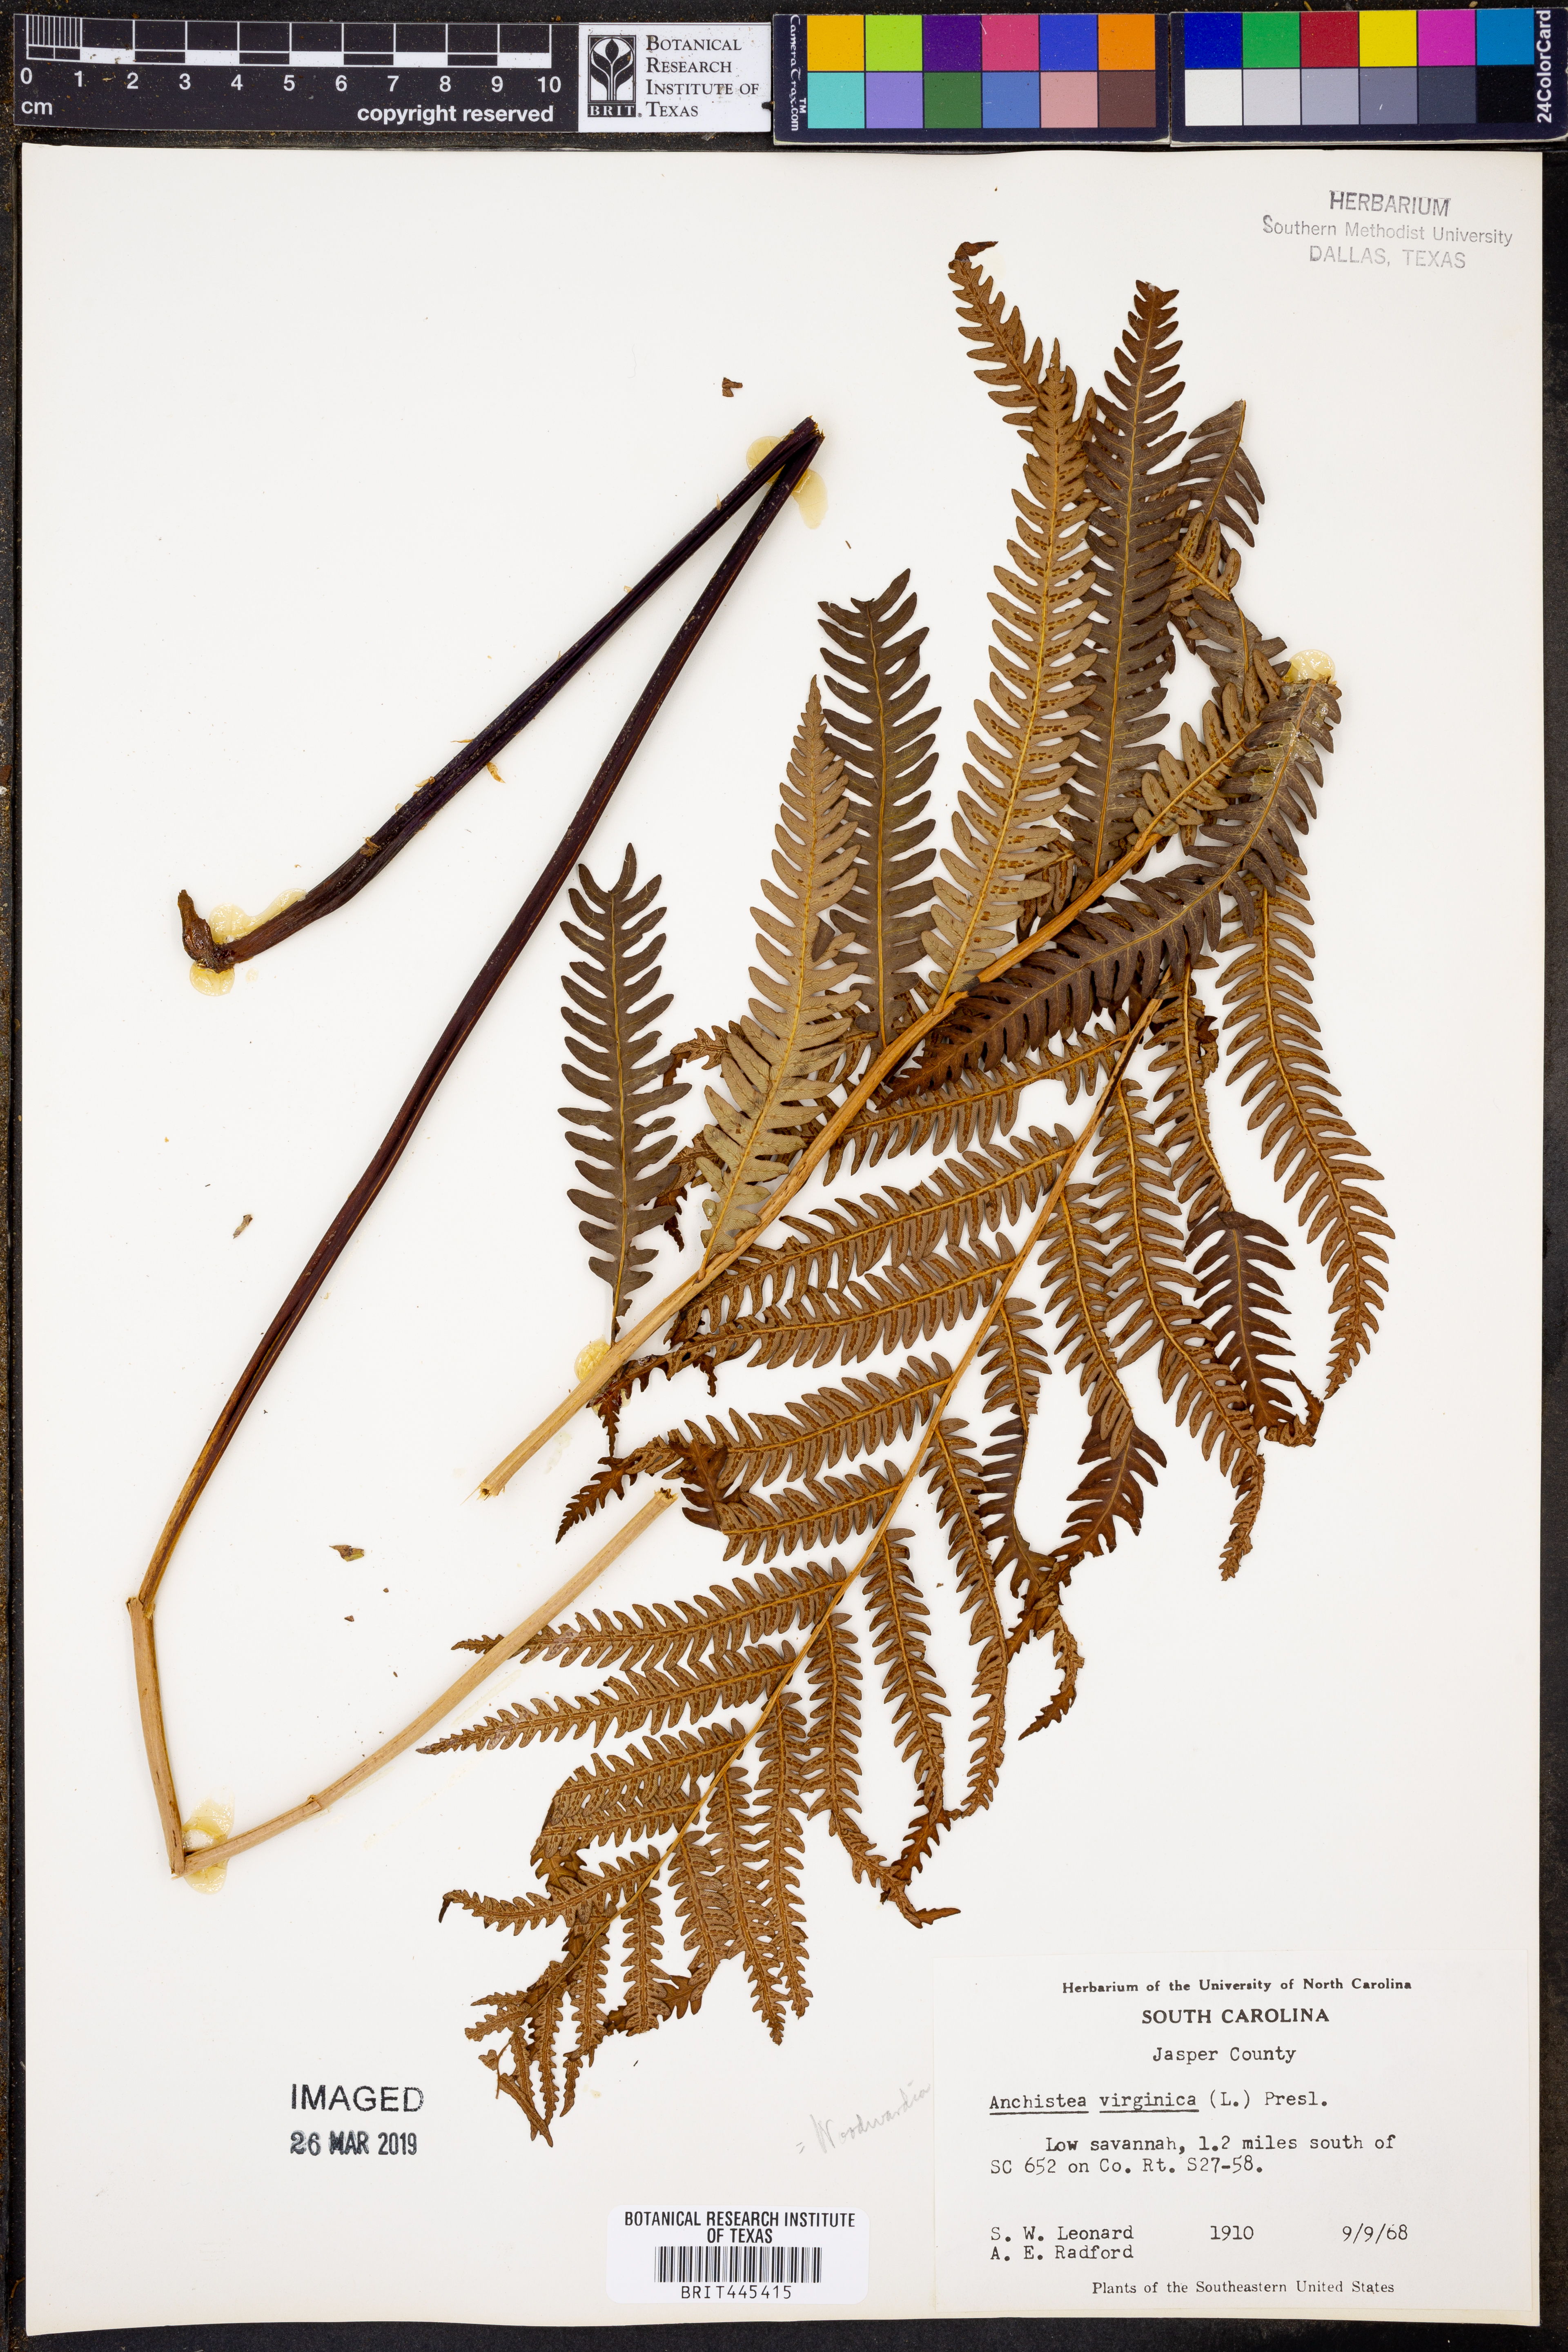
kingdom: Plantae
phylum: Tracheophyta
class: Polypodiopsida
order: Polypodiales
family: Blechnaceae
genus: Anchistea
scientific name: Anchistea virginica
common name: Virginia chain fern
